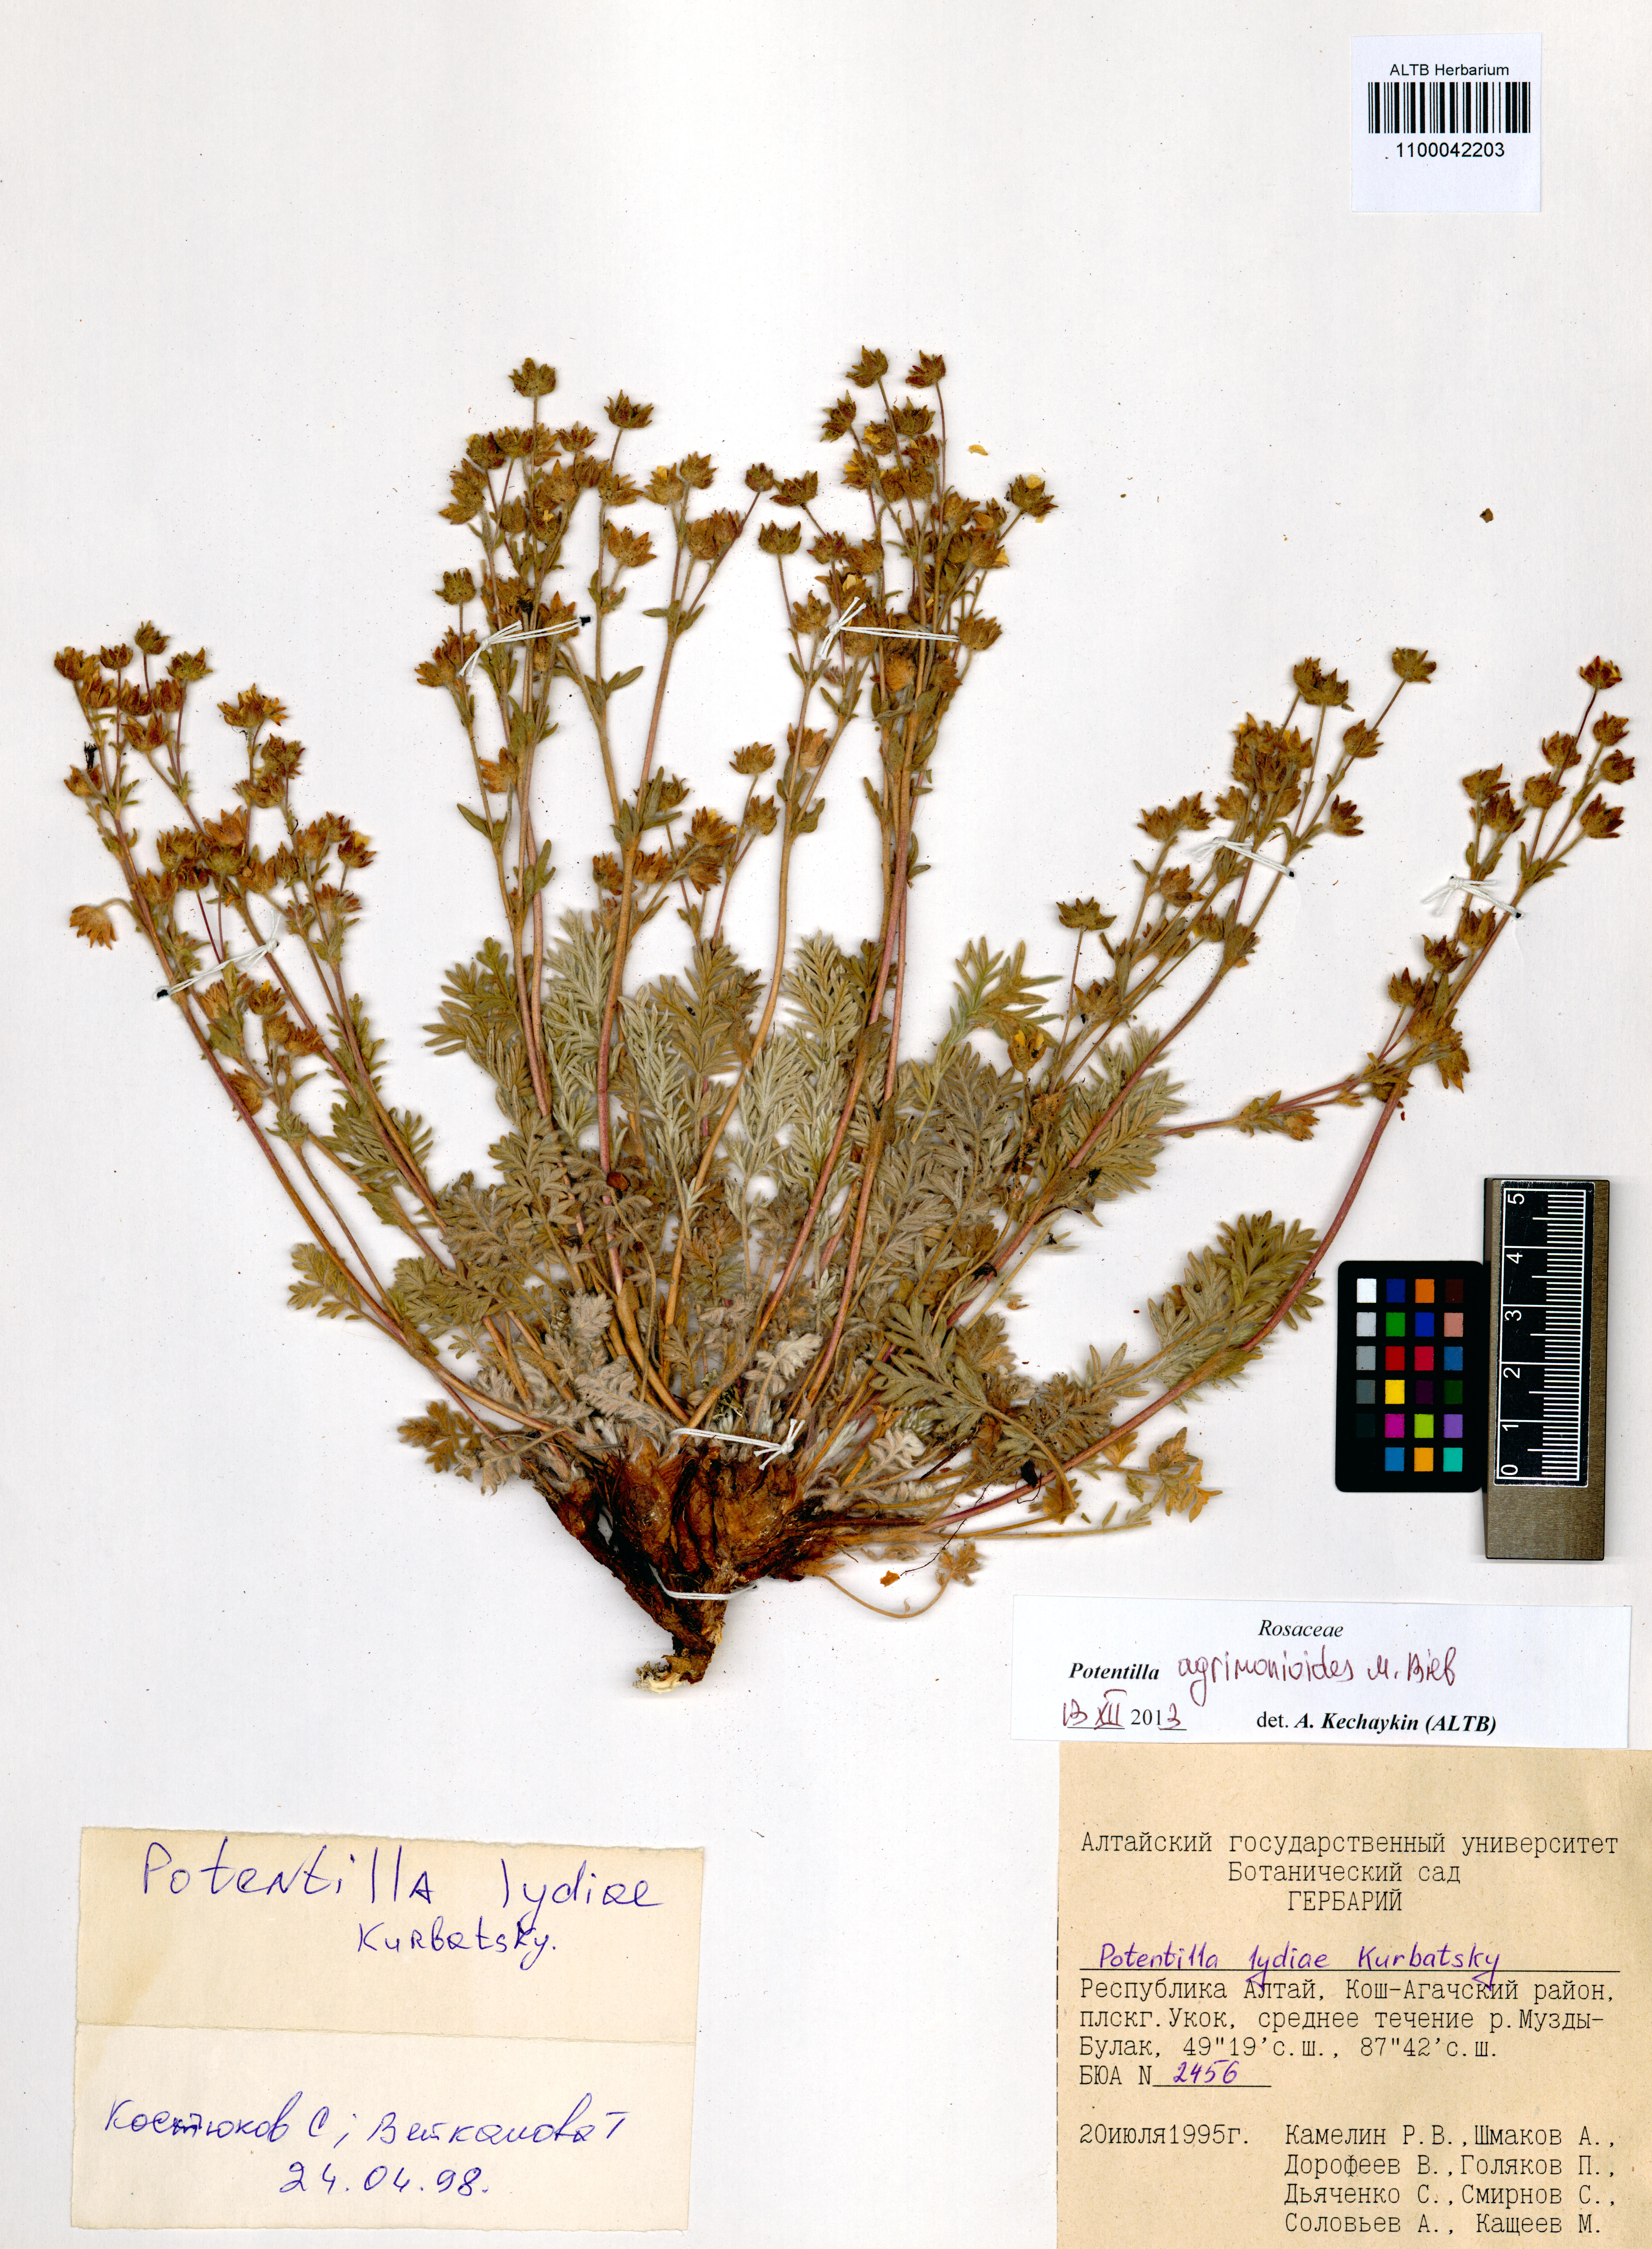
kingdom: Plantae
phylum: Tracheophyta
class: Magnoliopsida
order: Rosales
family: Rosaceae
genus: Potentilla
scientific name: Potentilla agrimonioides
